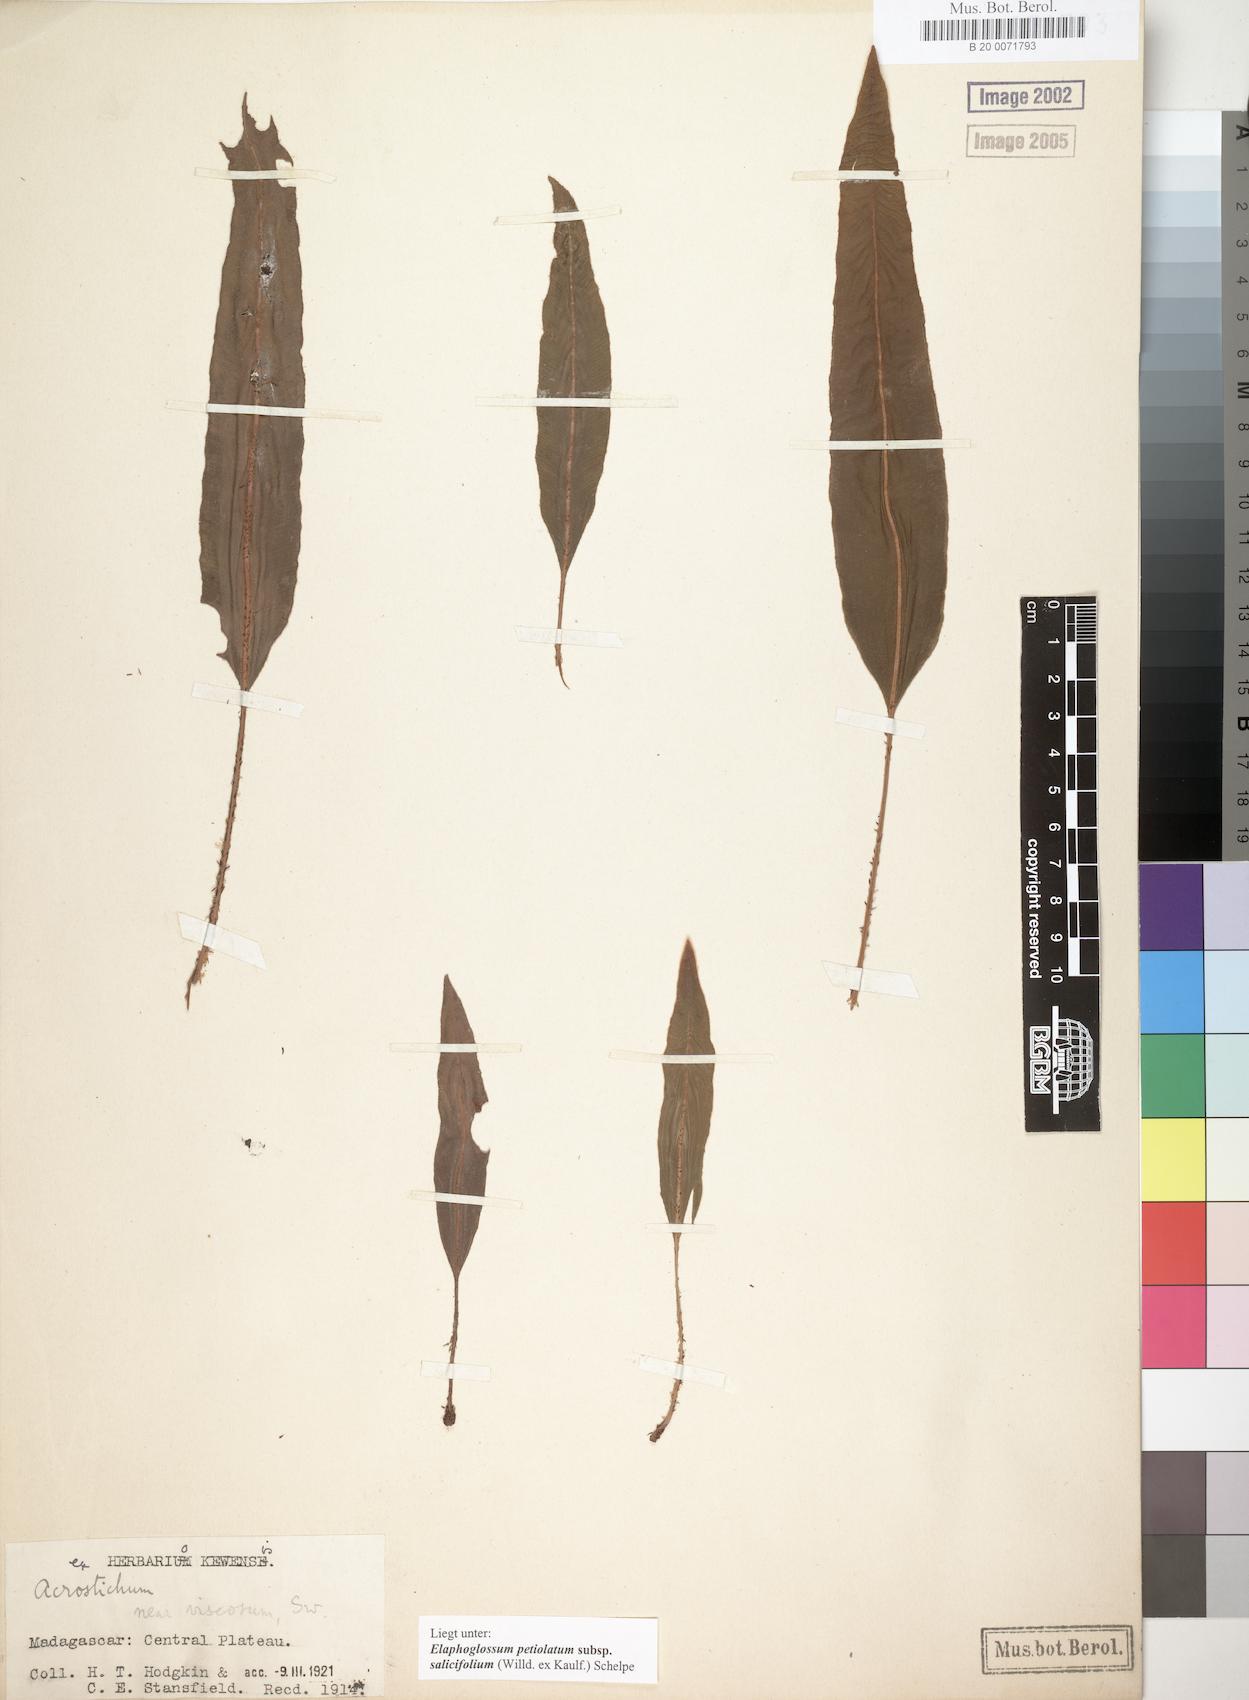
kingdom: Plantae
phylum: Tracheophyta
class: Polypodiopsida
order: Polypodiales
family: Dryopteridaceae
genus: Elaphoglossum
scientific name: Elaphoglossum lancifolium
